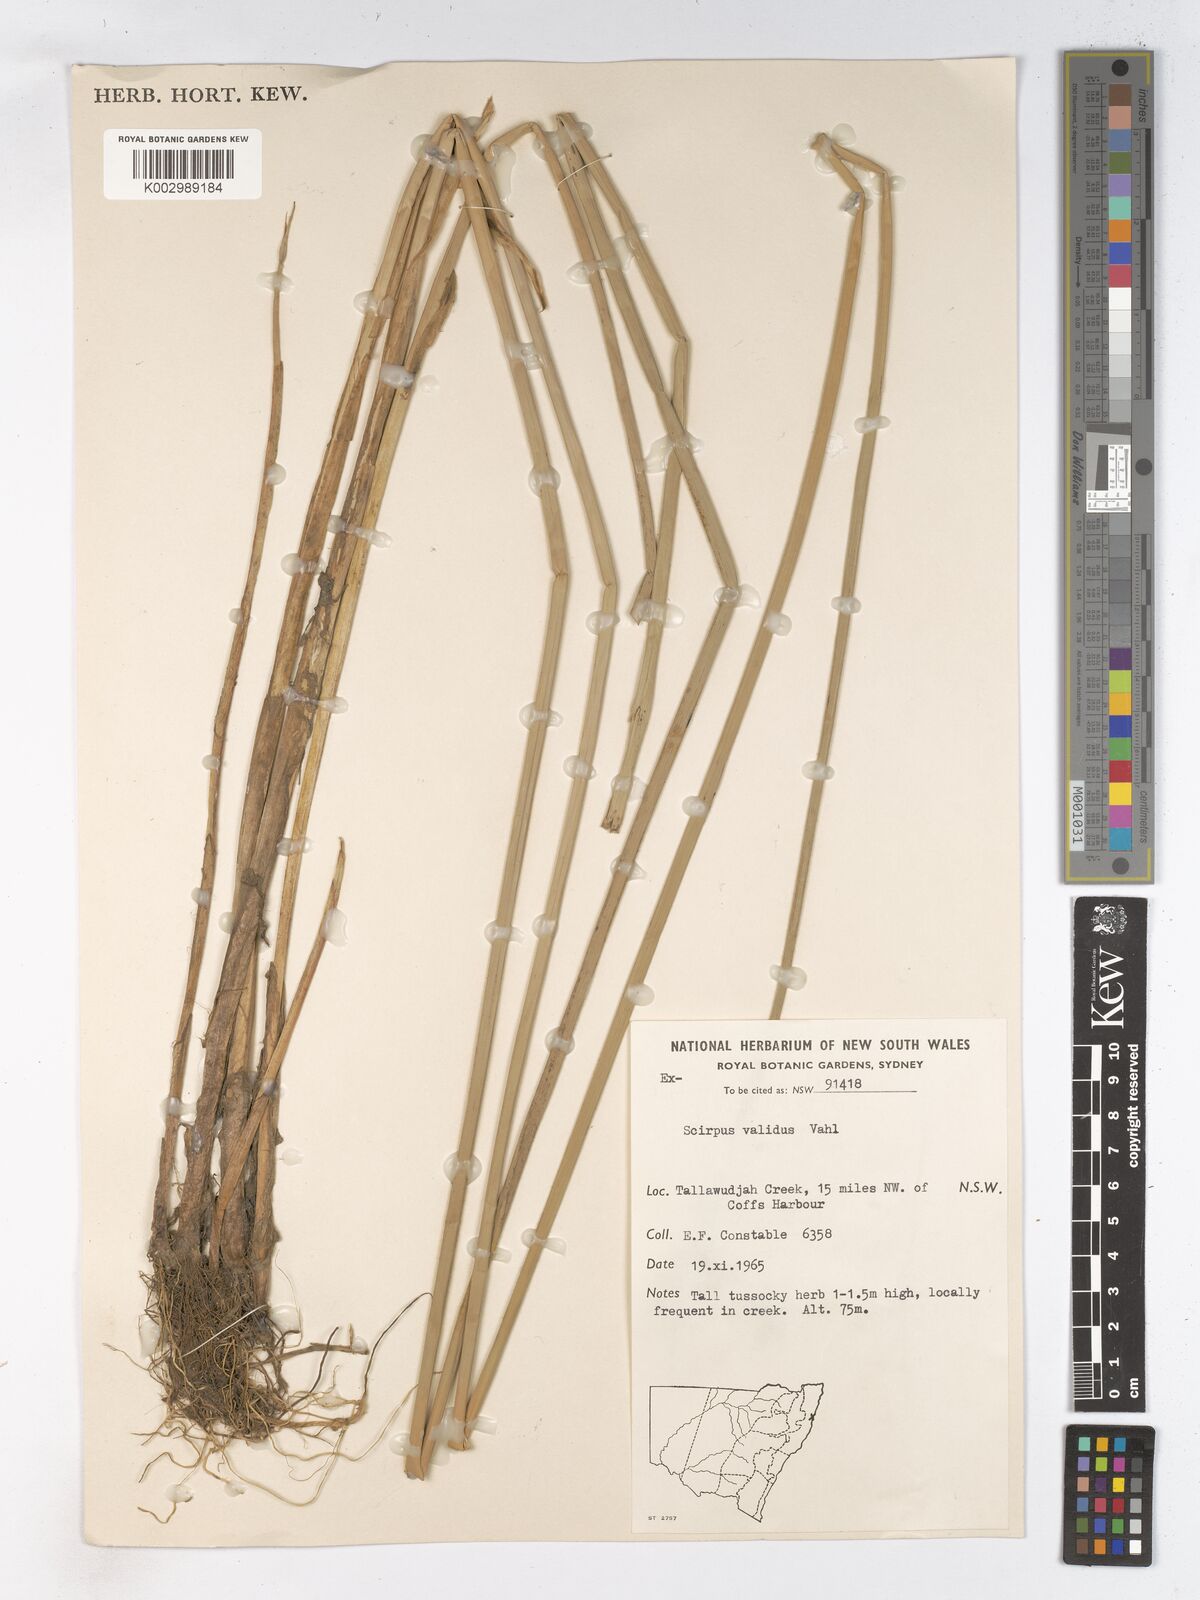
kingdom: Plantae
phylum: Tracheophyta
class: Liliopsida
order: Poales
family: Cyperaceae
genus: Schoenoplectus
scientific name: Schoenoplectus lacustris
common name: Common club-rush
